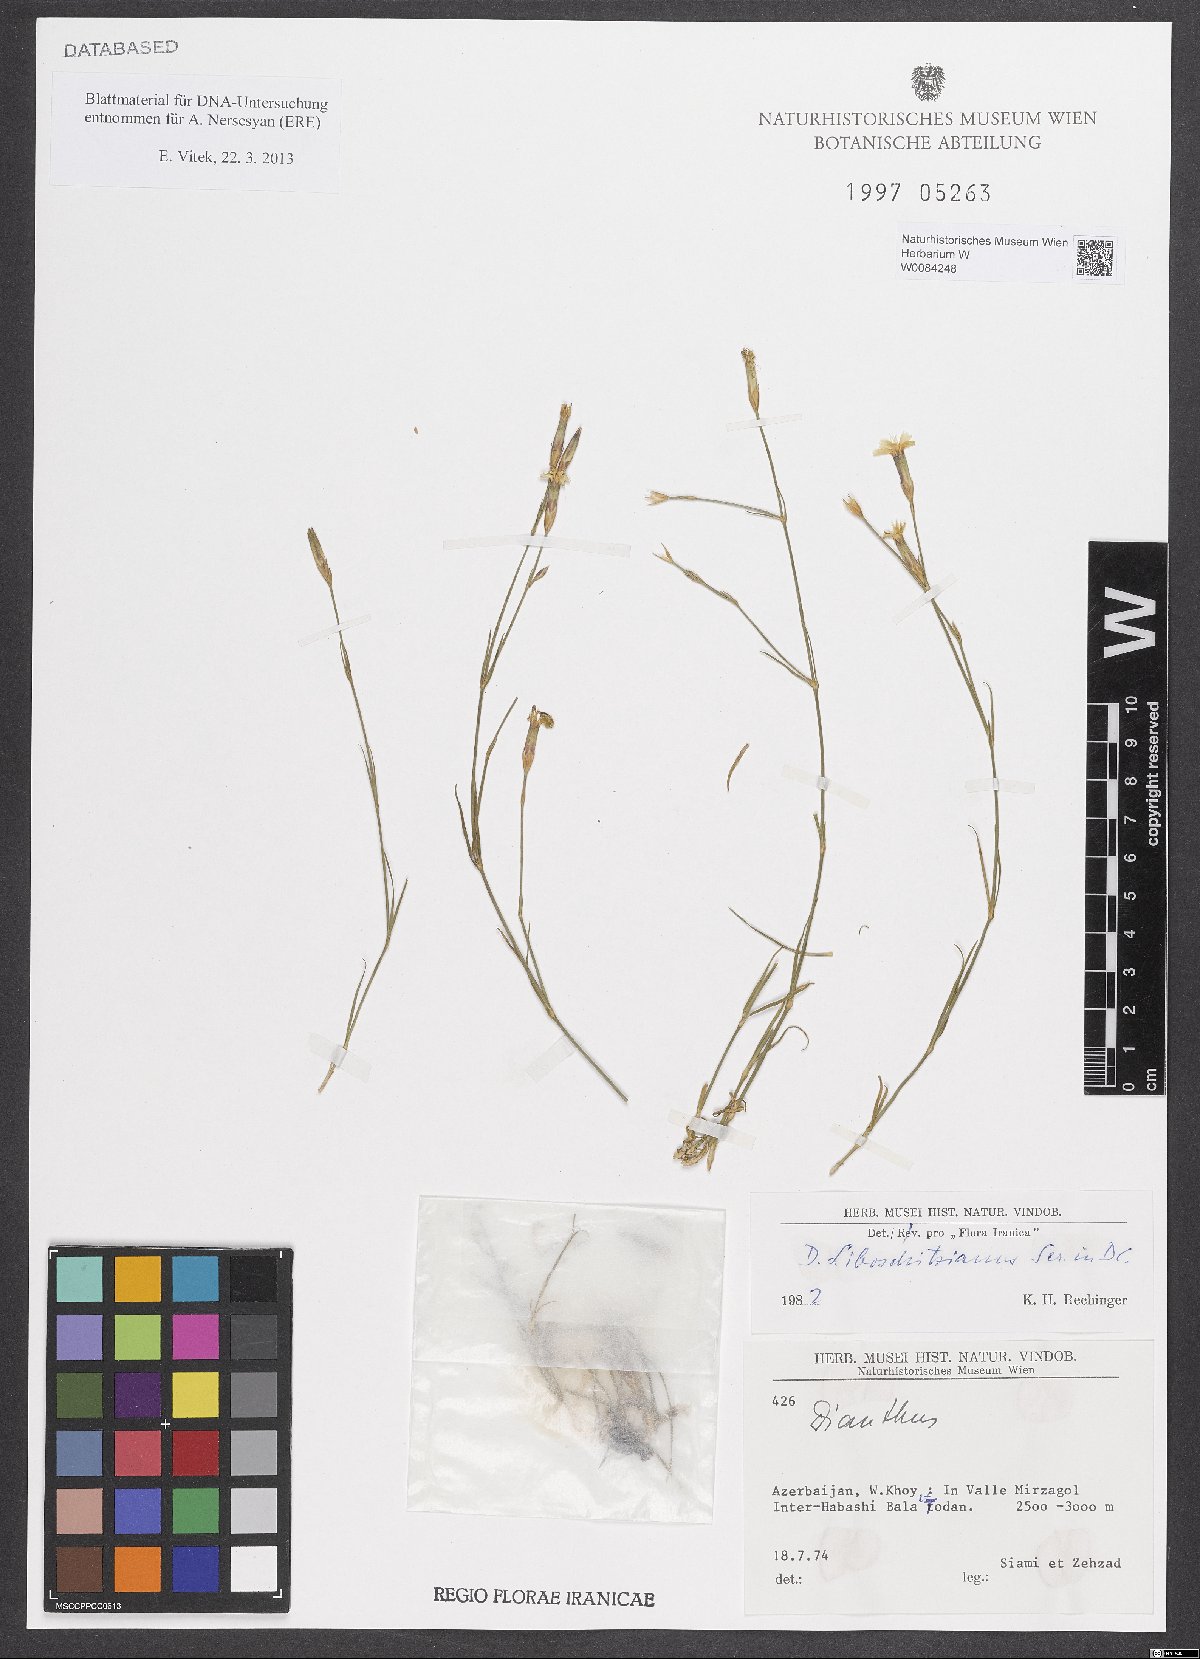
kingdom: Plantae
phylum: Tracheophyta
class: Magnoliopsida
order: Caryophyllales
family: Caryophyllaceae
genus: Dianthus
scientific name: Dianthus cretaceus
